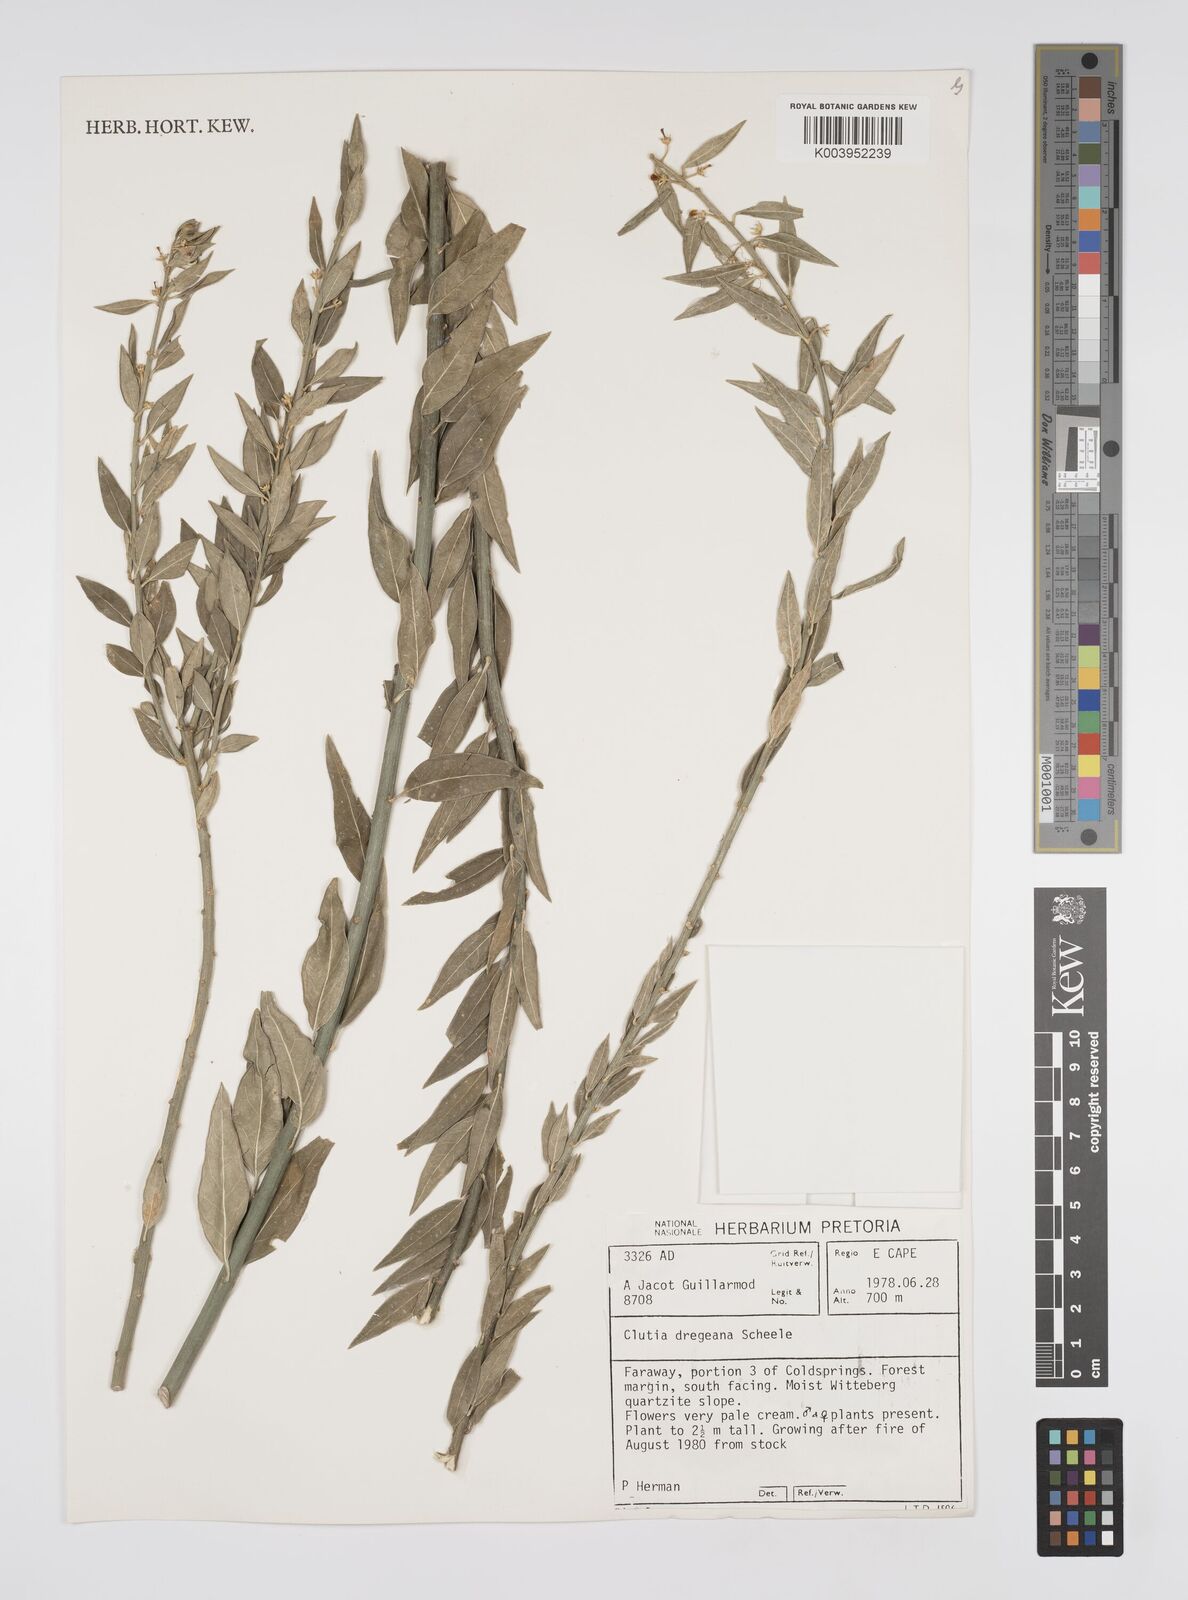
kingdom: Plantae
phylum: Tracheophyta
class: Magnoliopsida
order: Malpighiales
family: Peraceae
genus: Clutia
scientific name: Clutia dregeana
